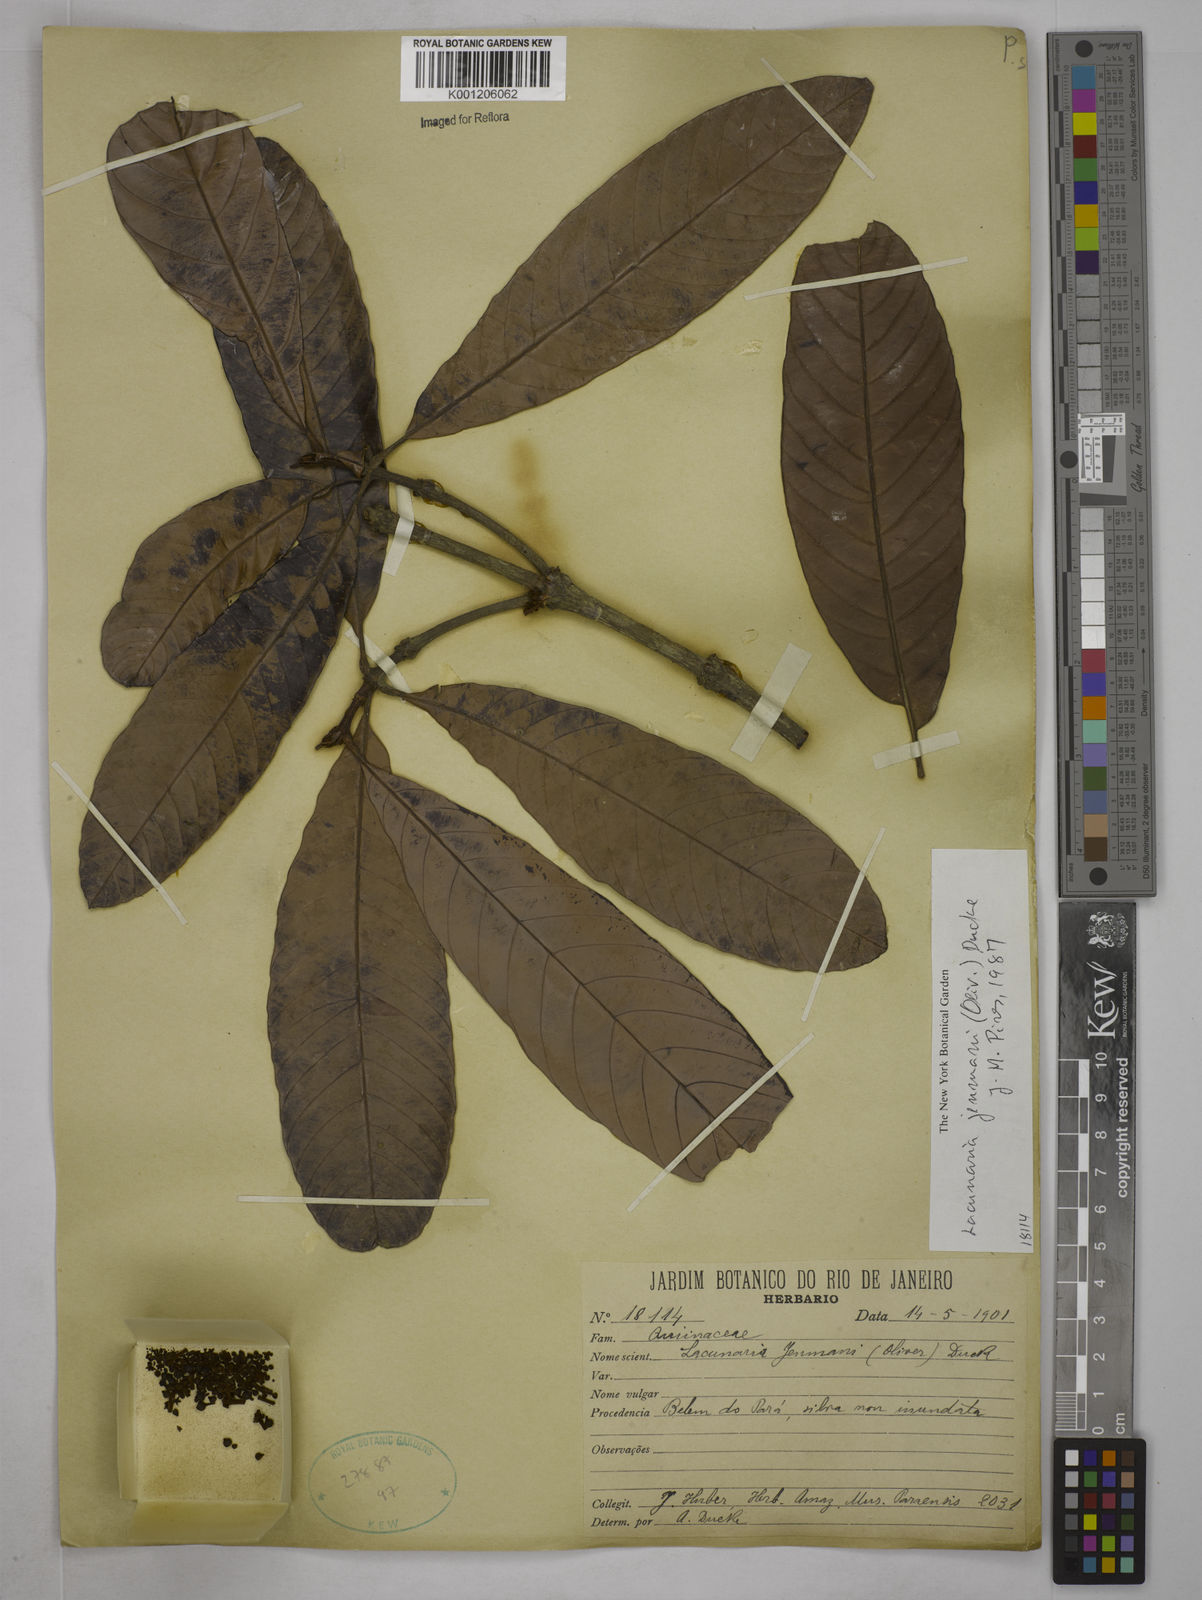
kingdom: Plantae
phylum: Tracheophyta
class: Magnoliopsida
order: Malpighiales
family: Quiinaceae
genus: Lacunaria
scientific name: Lacunaria jenmanii
